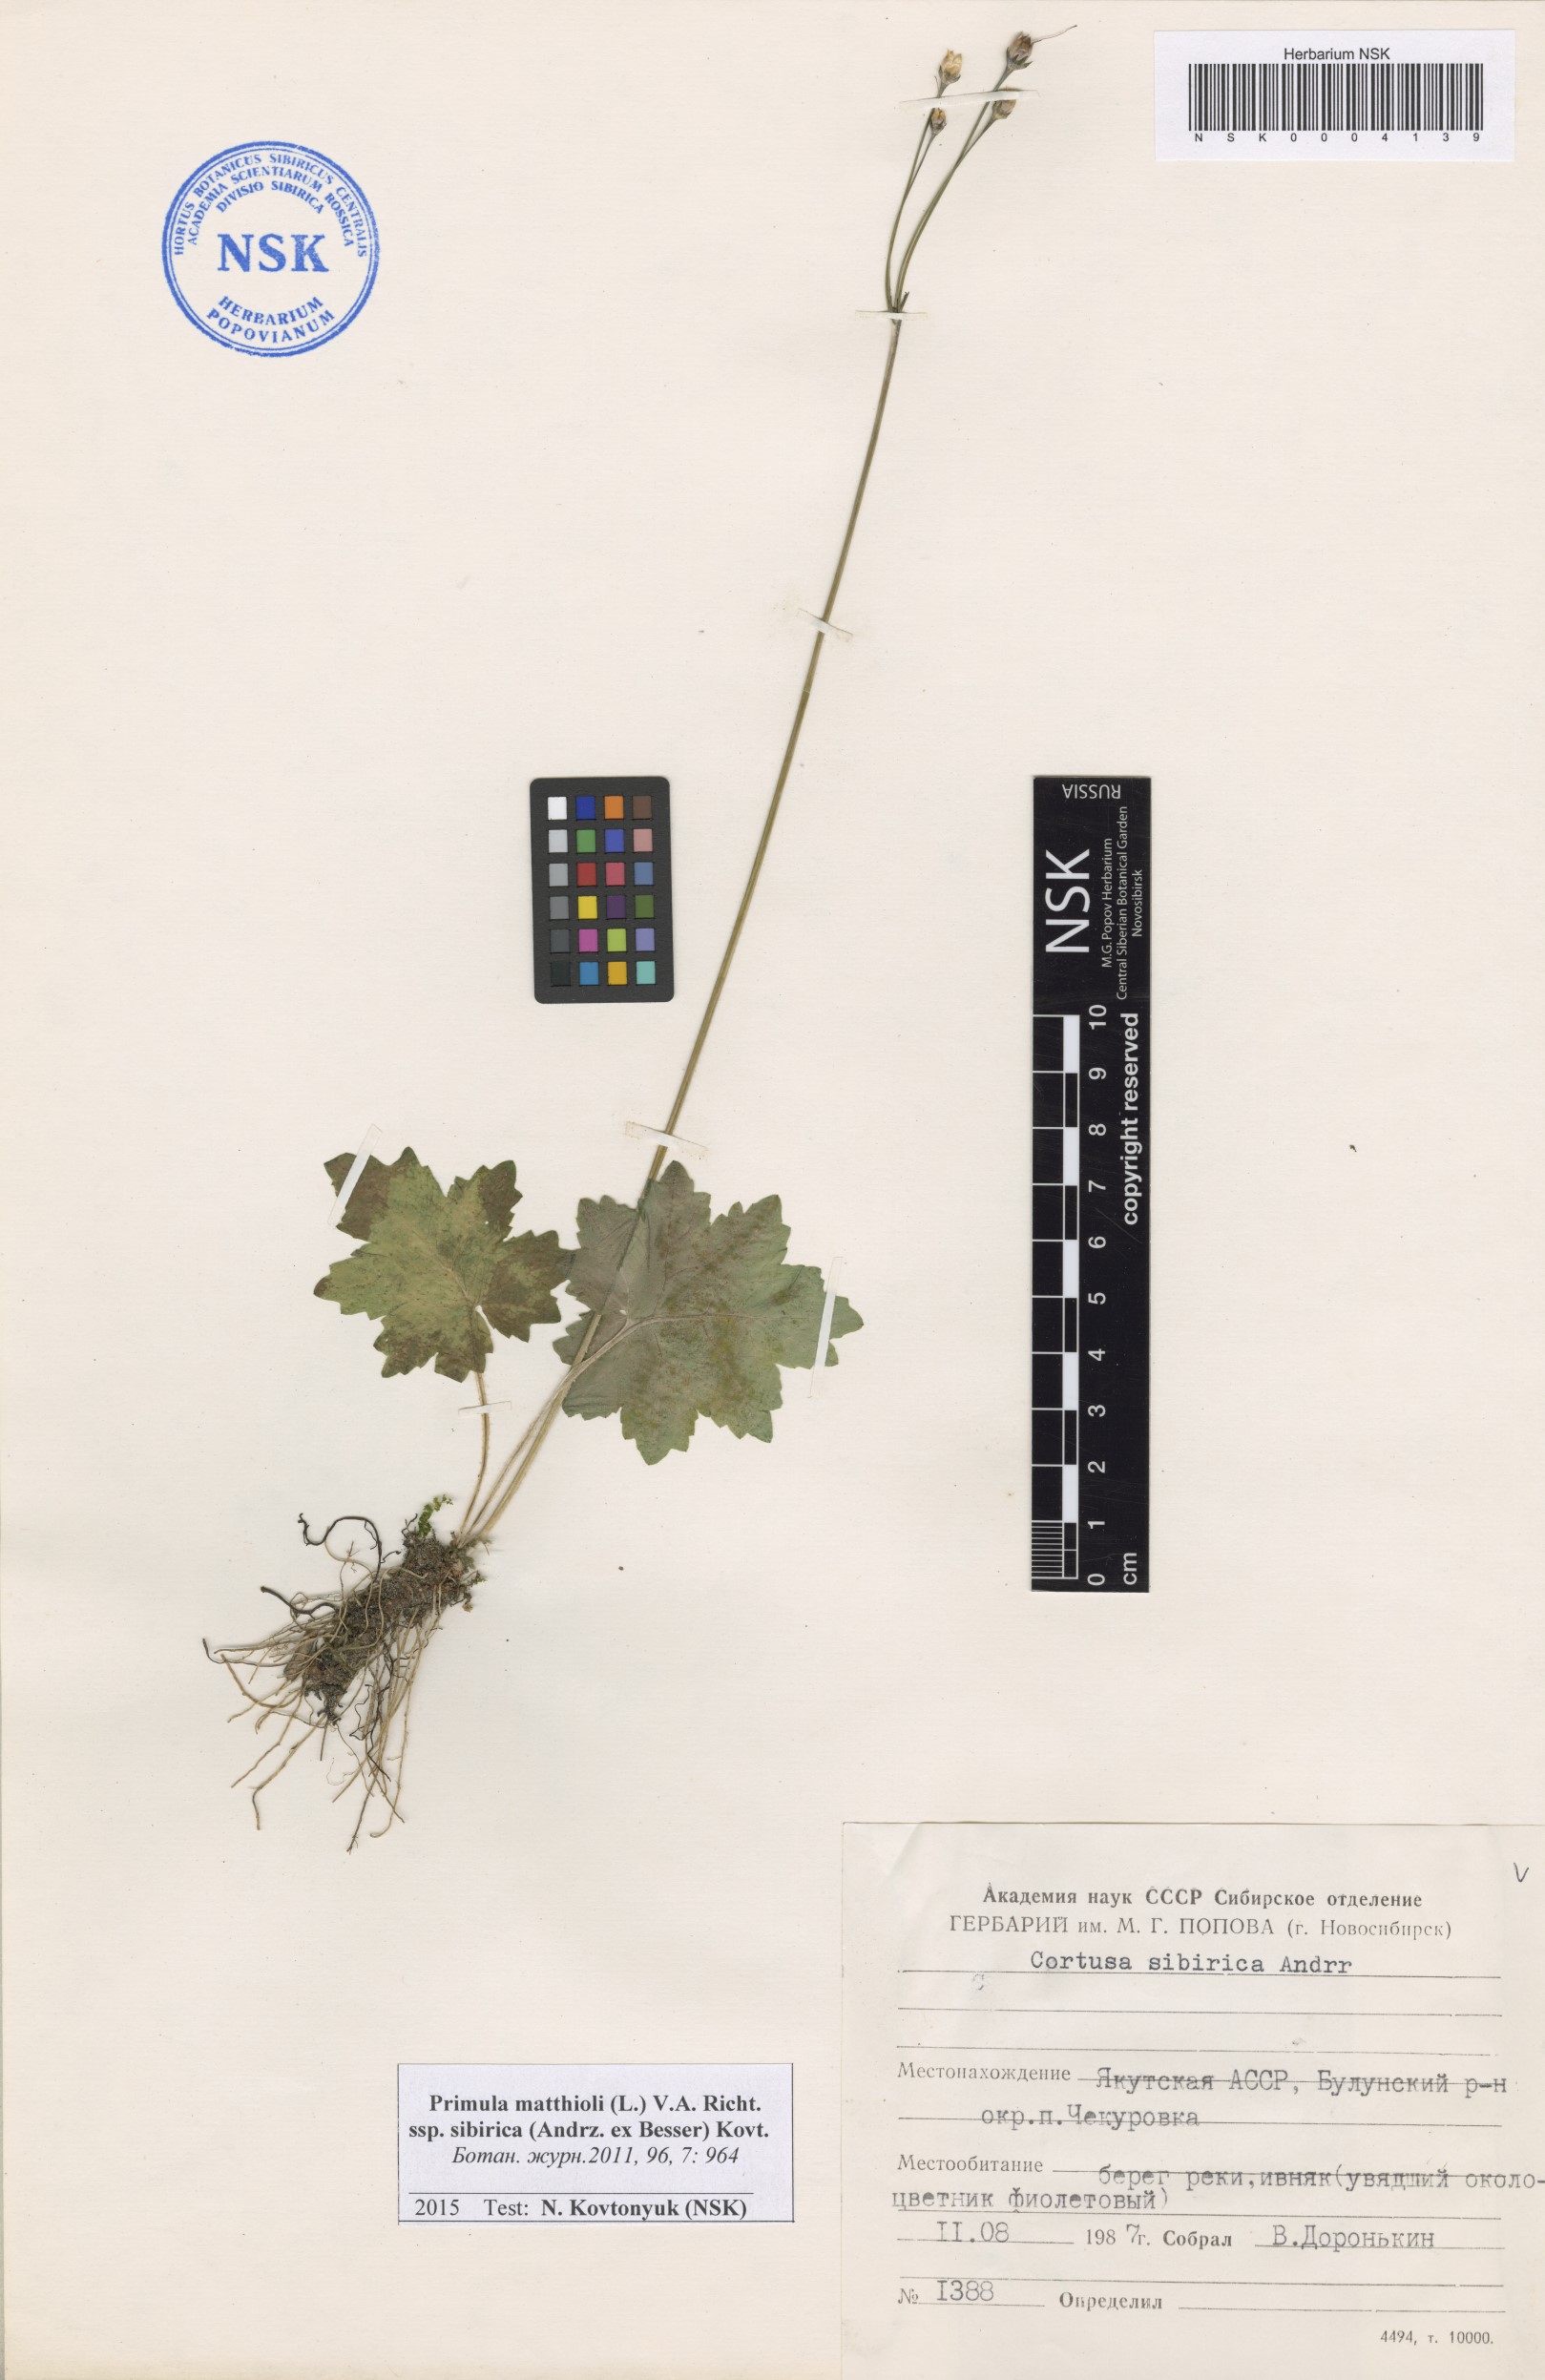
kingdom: Plantae
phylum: Tracheophyta
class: Magnoliopsida
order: Ericales
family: Primulaceae
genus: Primula
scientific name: Primula matthioli
